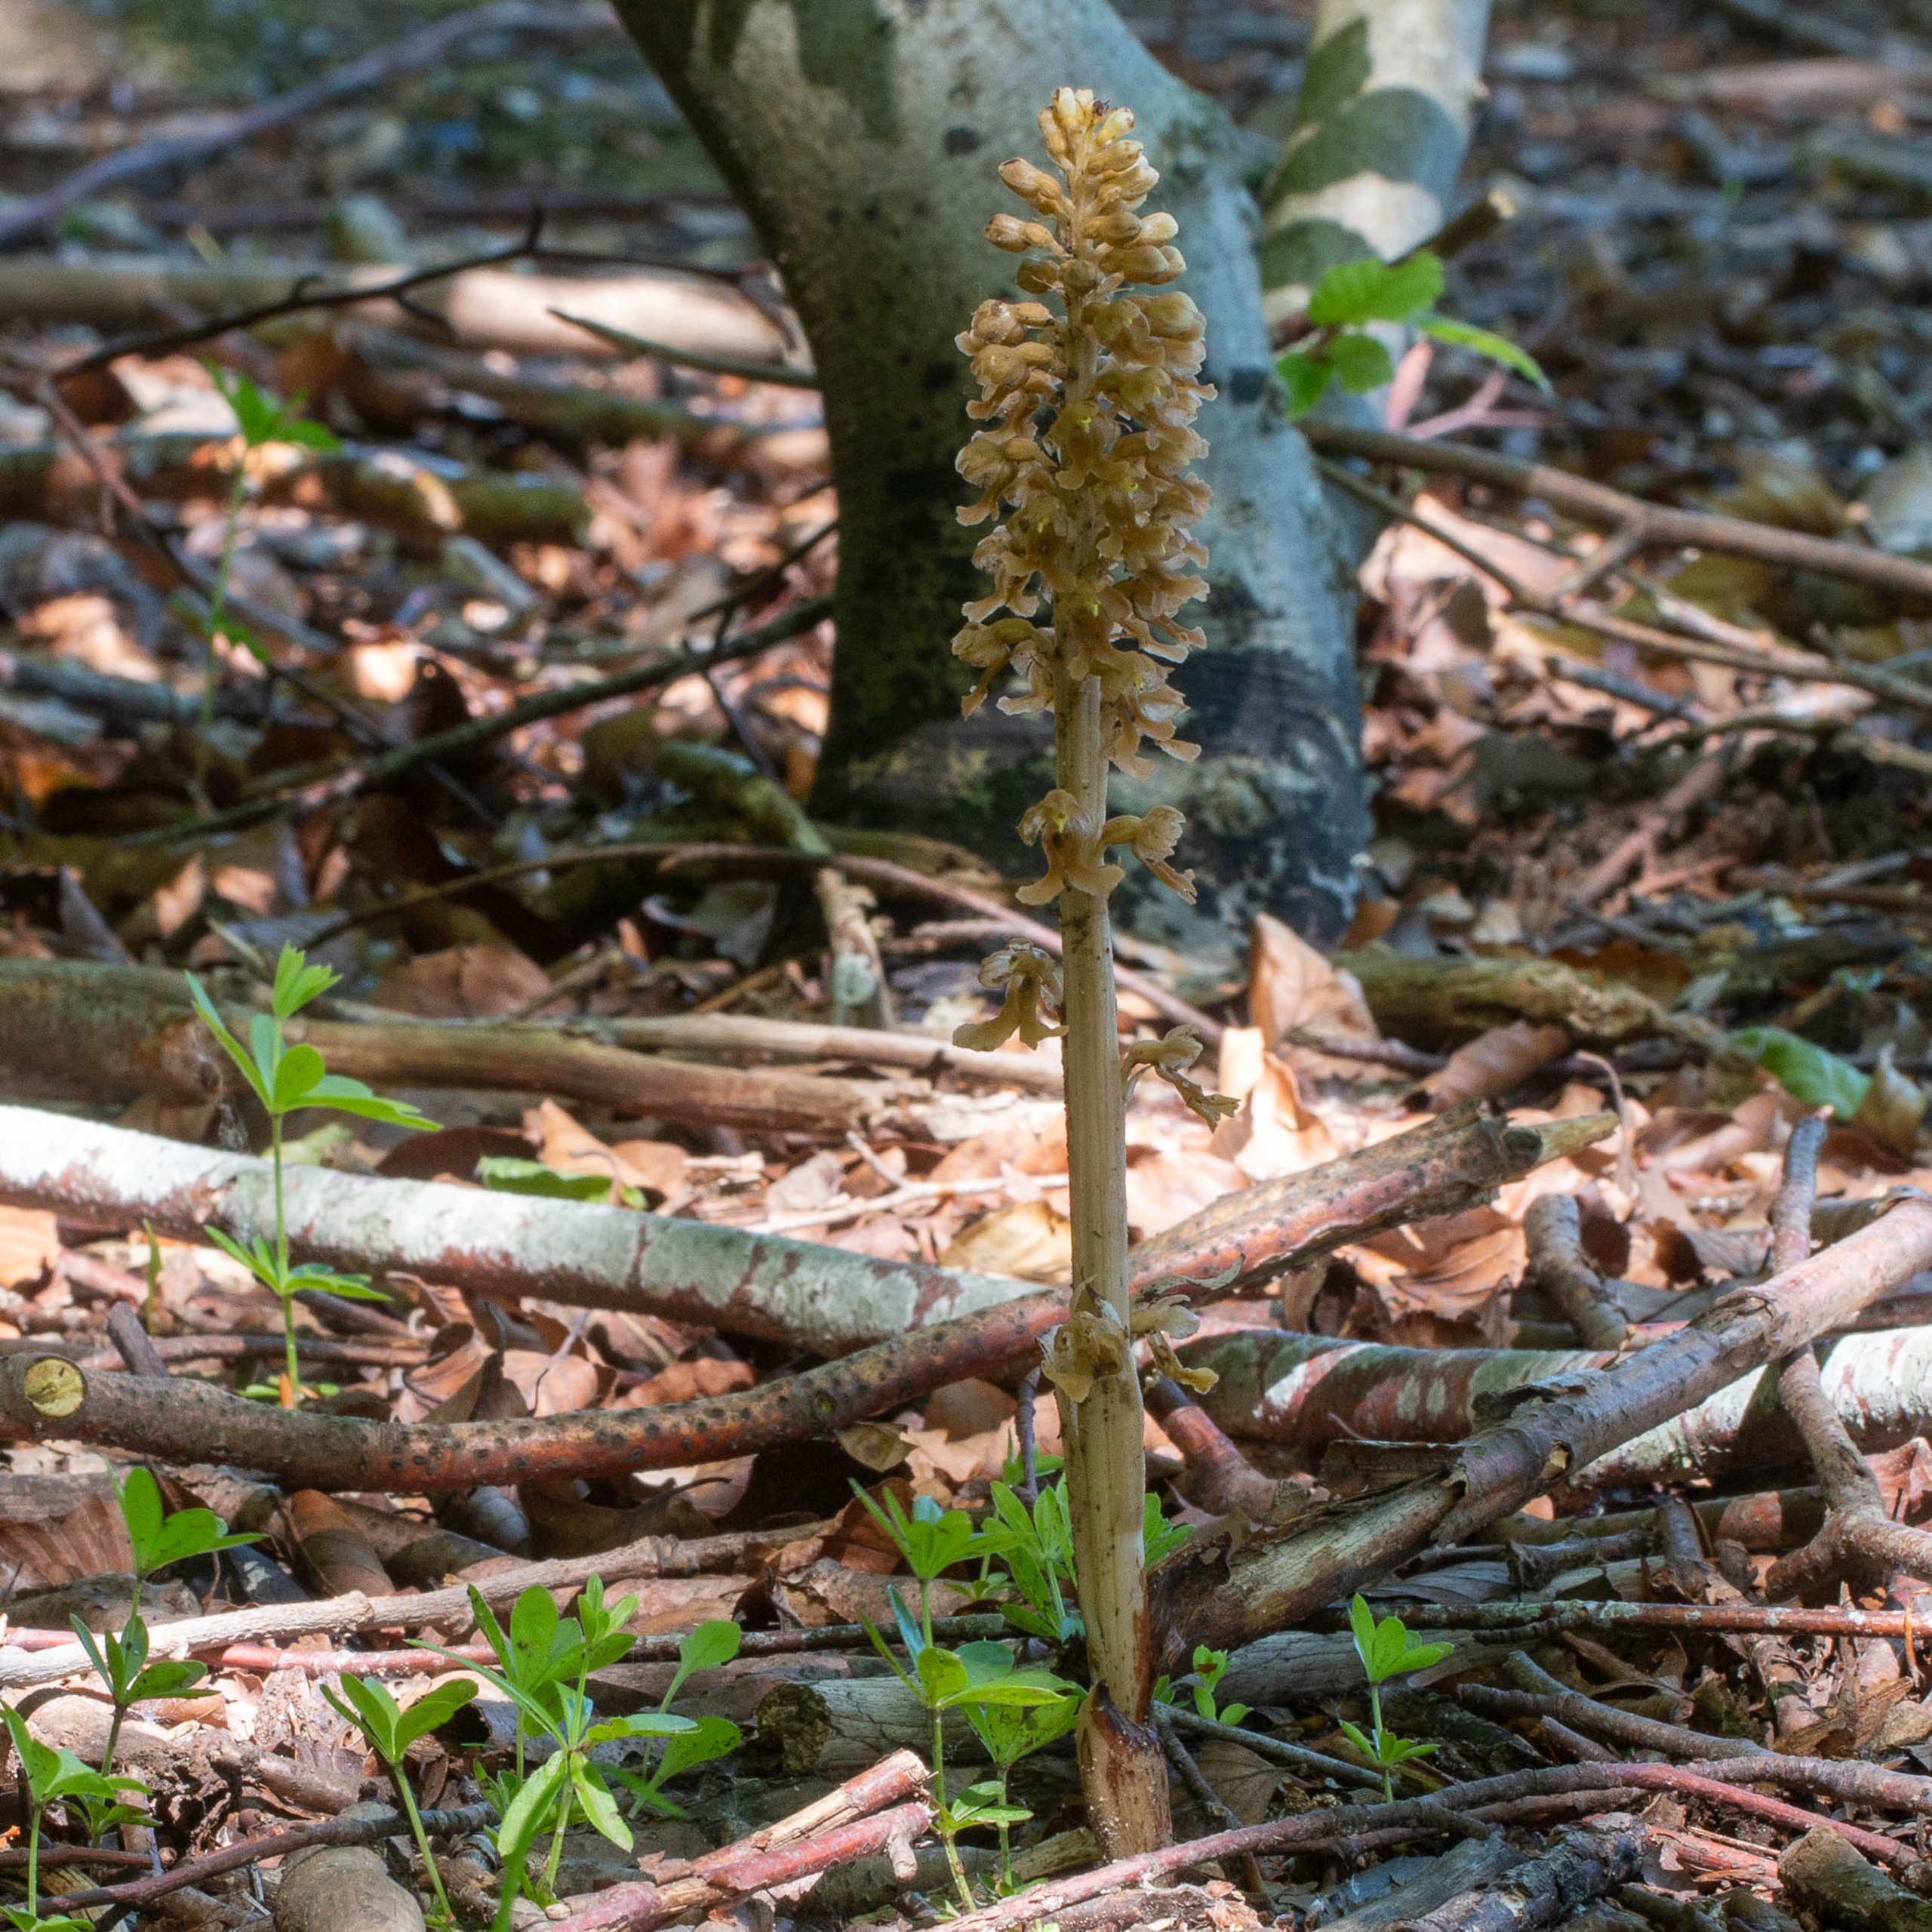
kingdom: Plantae
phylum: Tracheophyta
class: Liliopsida
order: Asparagales
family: Orchidaceae
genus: Neottia
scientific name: Neottia nidus-avis
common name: Rederod
